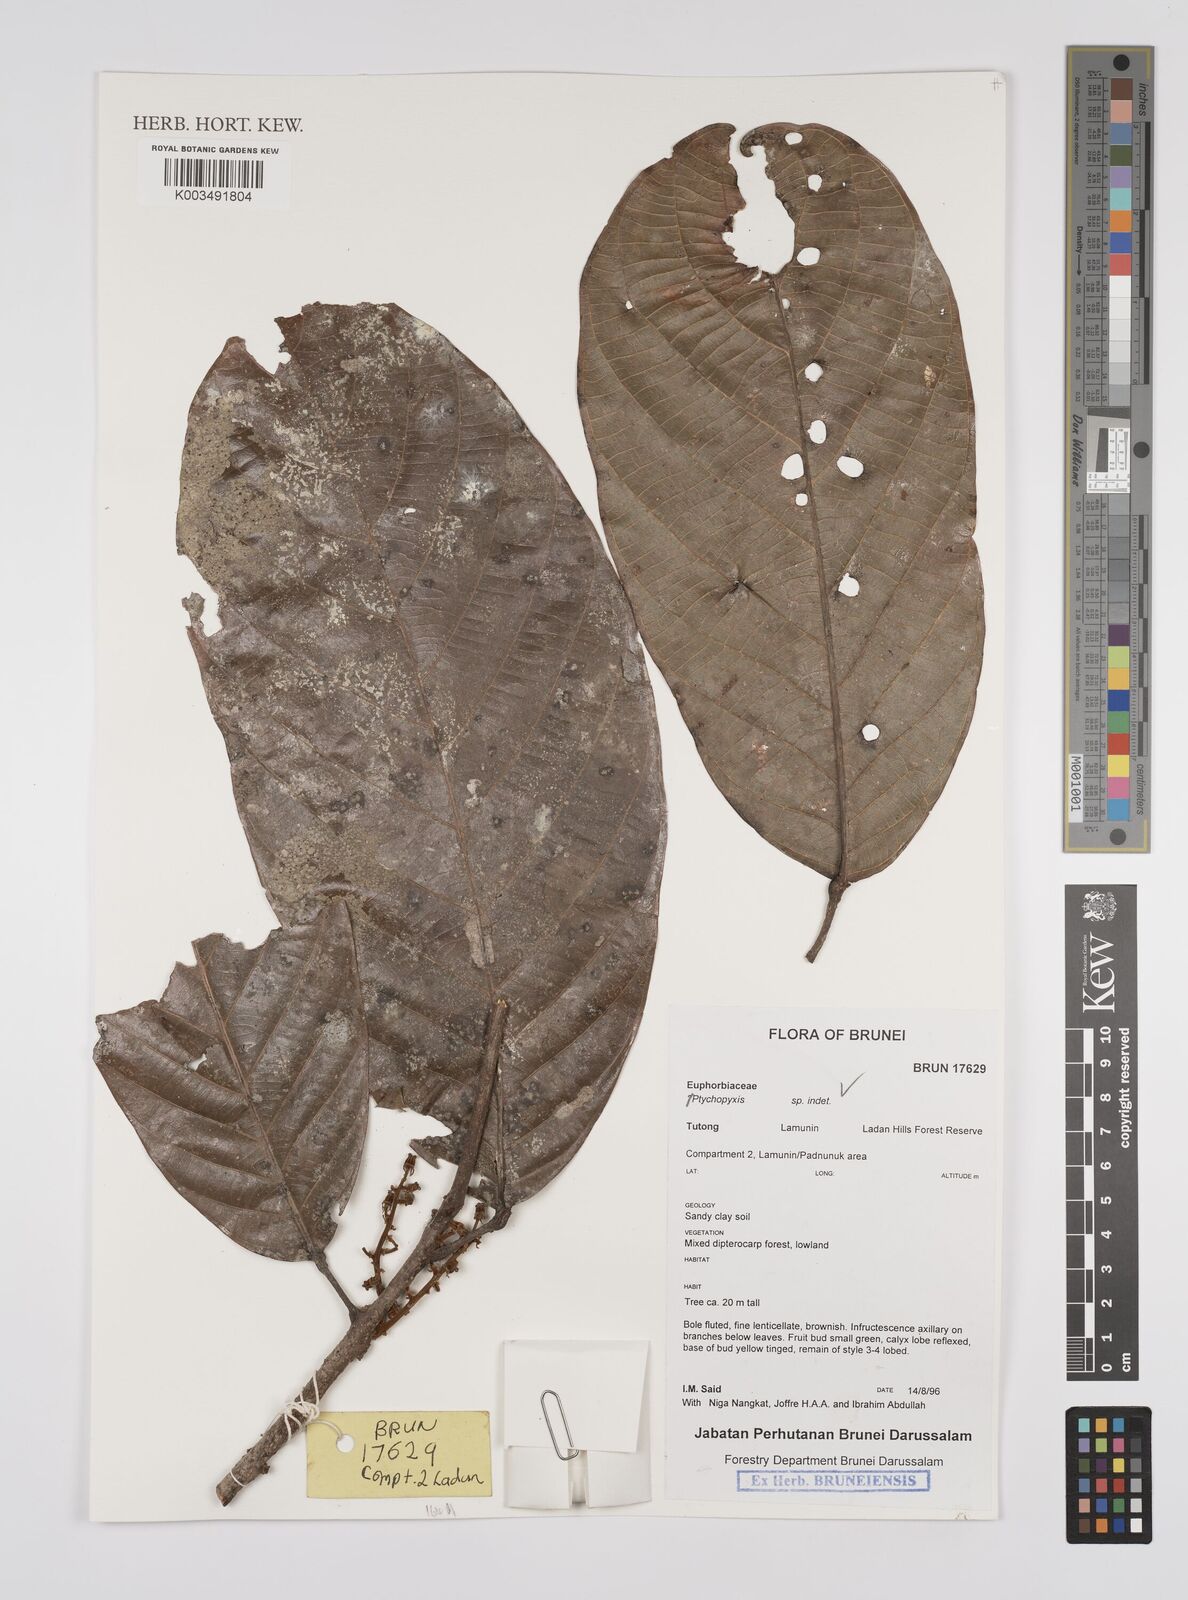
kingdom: Plantae
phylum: Tracheophyta
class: Magnoliopsida
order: Malpighiales
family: Euphorbiaceae
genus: Ptychopyxis
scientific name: Ptychopyxis
